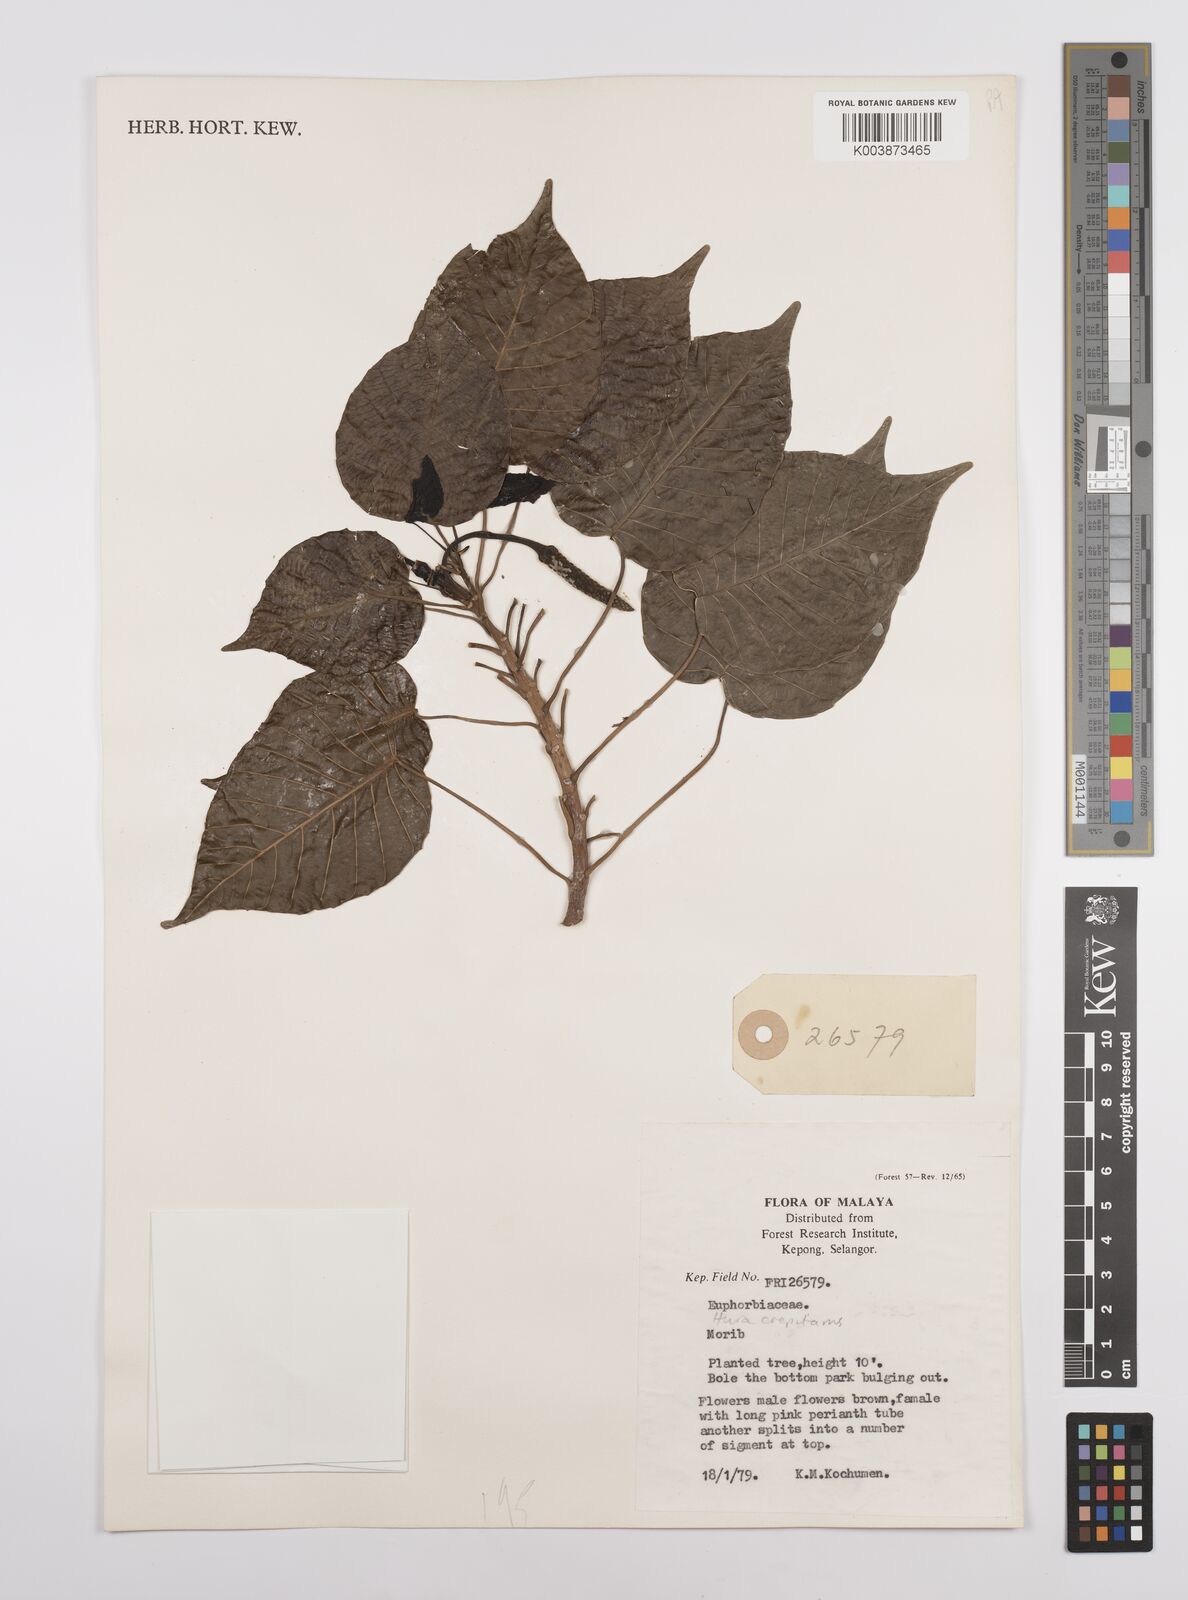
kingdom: Plantae
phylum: Tracheophyta
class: Magnoliopsida
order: Malpighiales
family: Euphorbiaceae
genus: Hura
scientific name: Hura crepitans
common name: Sandboxtree
